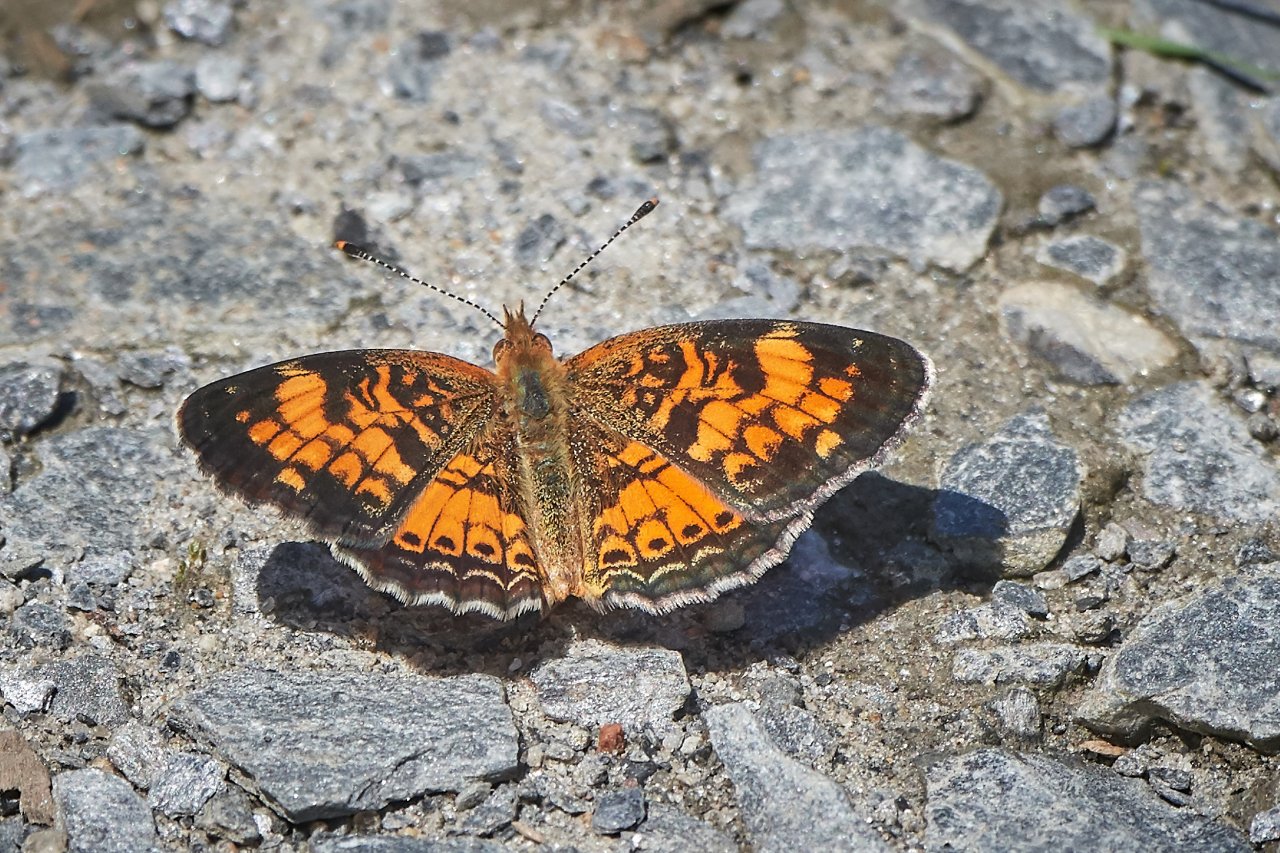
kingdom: Animalia
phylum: Arthropoda
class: Insecta
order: Lepidoptera
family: Nymphalidae
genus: Phyciodes
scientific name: Phyciodes tharos
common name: Pearl Crescent
